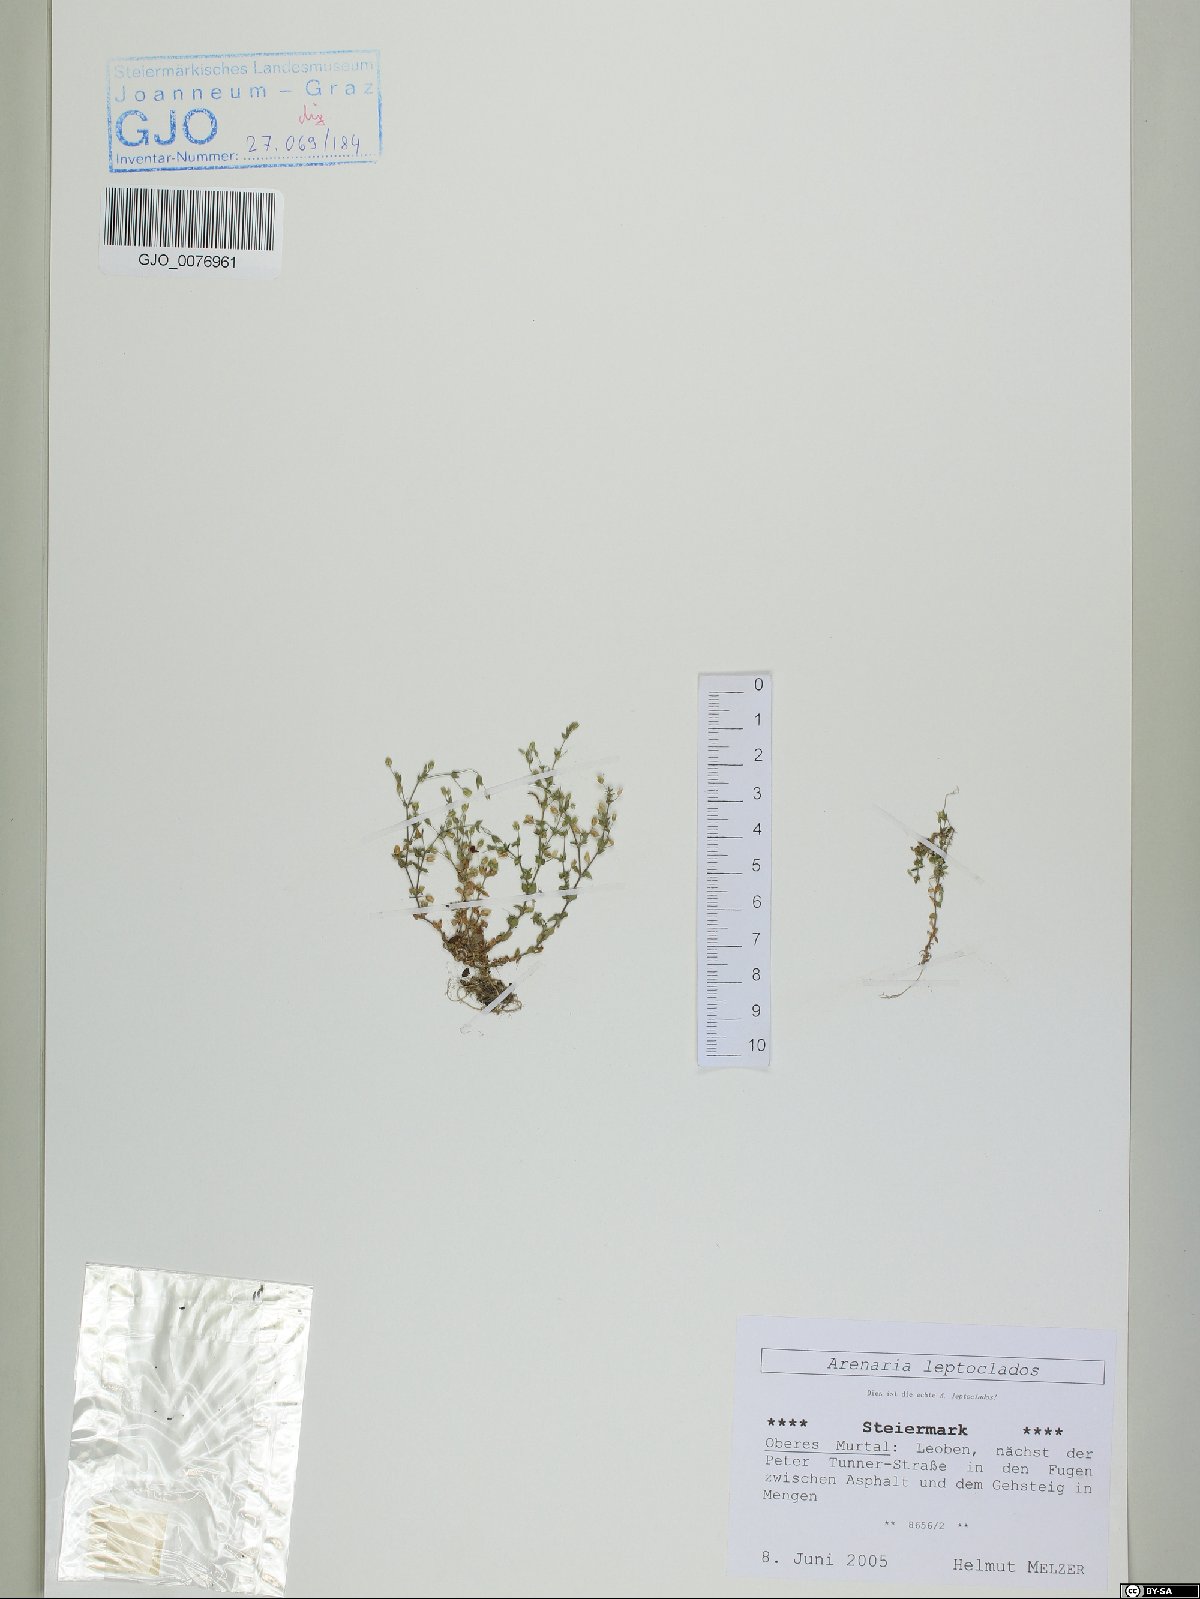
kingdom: Plantae
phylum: Tracheophyta
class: Magnoliopsida
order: Caryophyllales
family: Caryophyllaceae
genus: Arenaria
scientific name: Arenaria leptoclados
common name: Thyme-leaved sandwort
